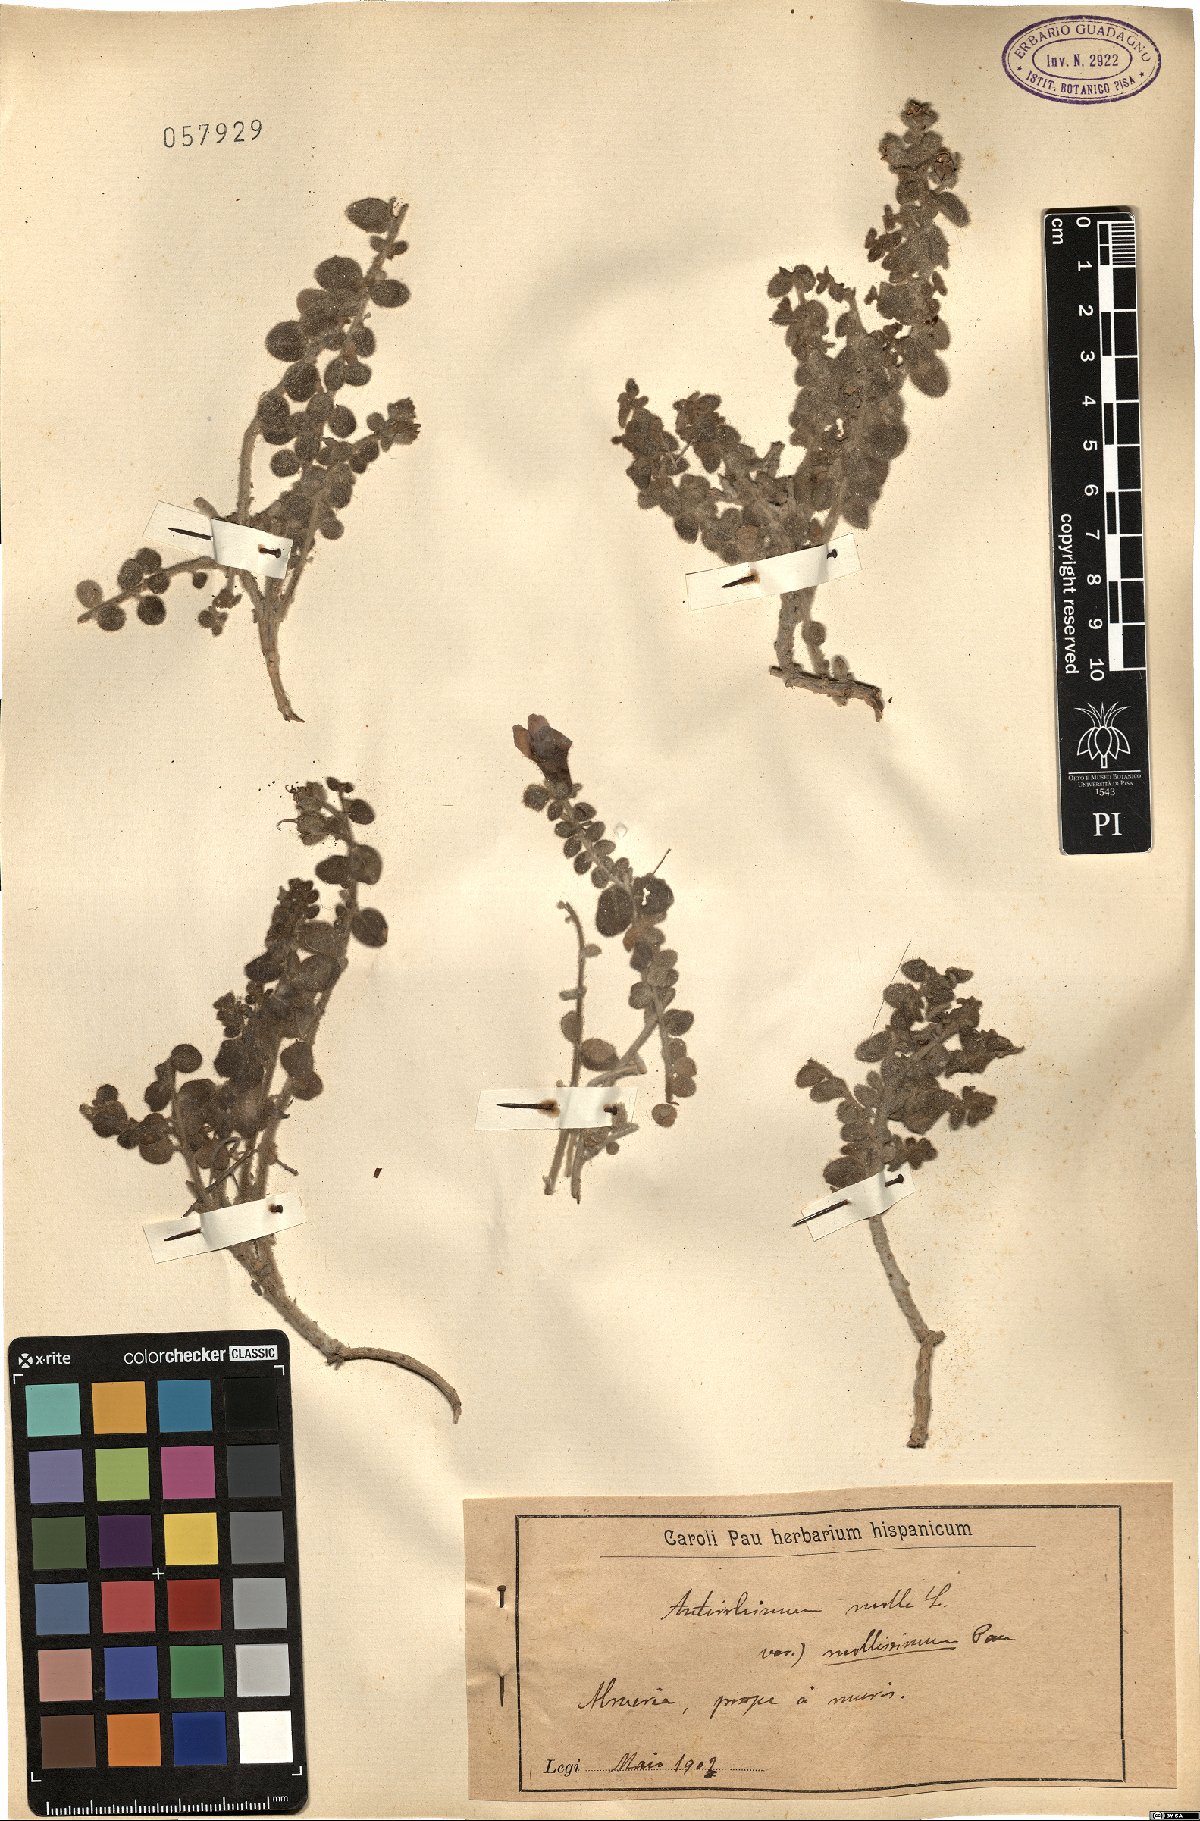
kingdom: Plantae
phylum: Tracheophyta
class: Magnoliopsida
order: Lamiales
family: Plantaginaceae
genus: Antirrhinum
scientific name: Antirrhinum mollissimum
